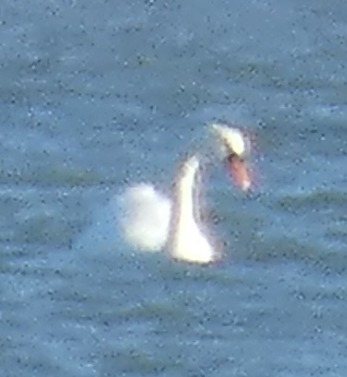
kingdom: Animalia
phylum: Chordata
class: Aves
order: Anseriformes
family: Anatidae
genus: Cygnus
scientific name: Cygnus olor
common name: Knopsvane
